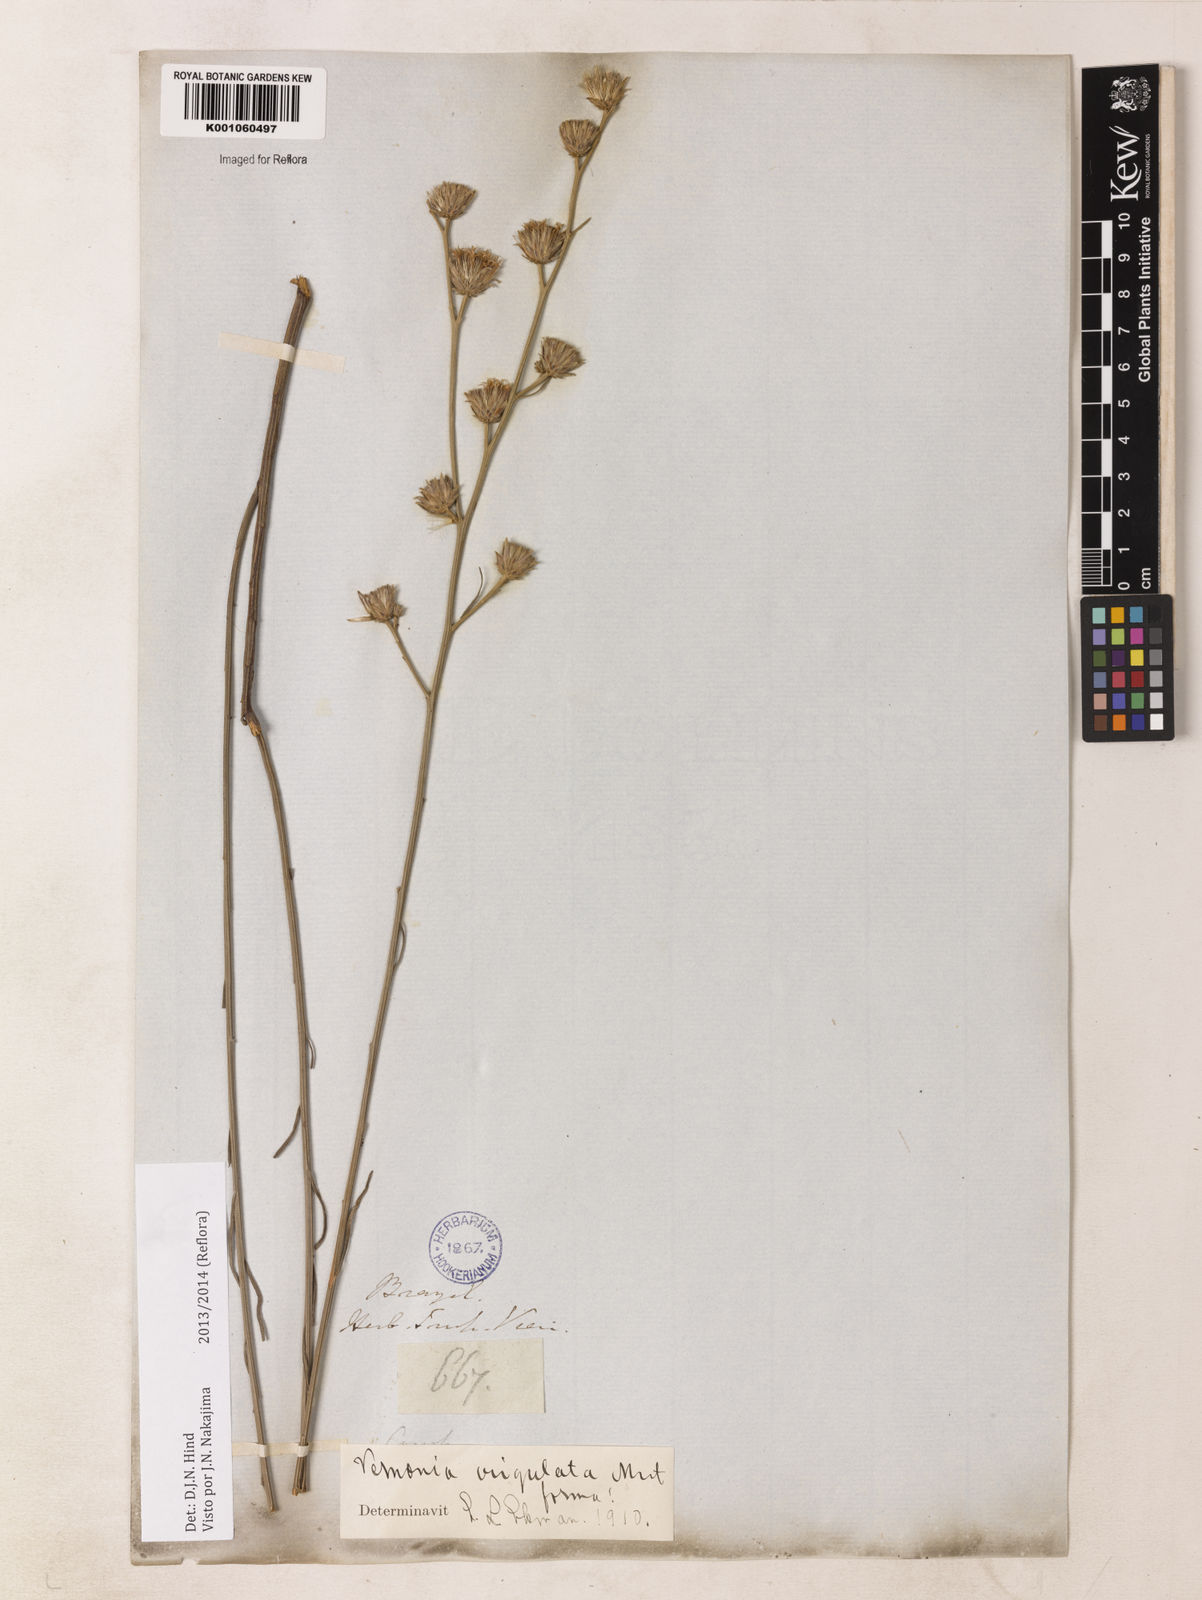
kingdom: Plantae
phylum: Tracheophyta
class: Magnoliopsida
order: Asterales
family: Asteraceae
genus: Lessingianthus
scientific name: Lessingianthus virgulatus
